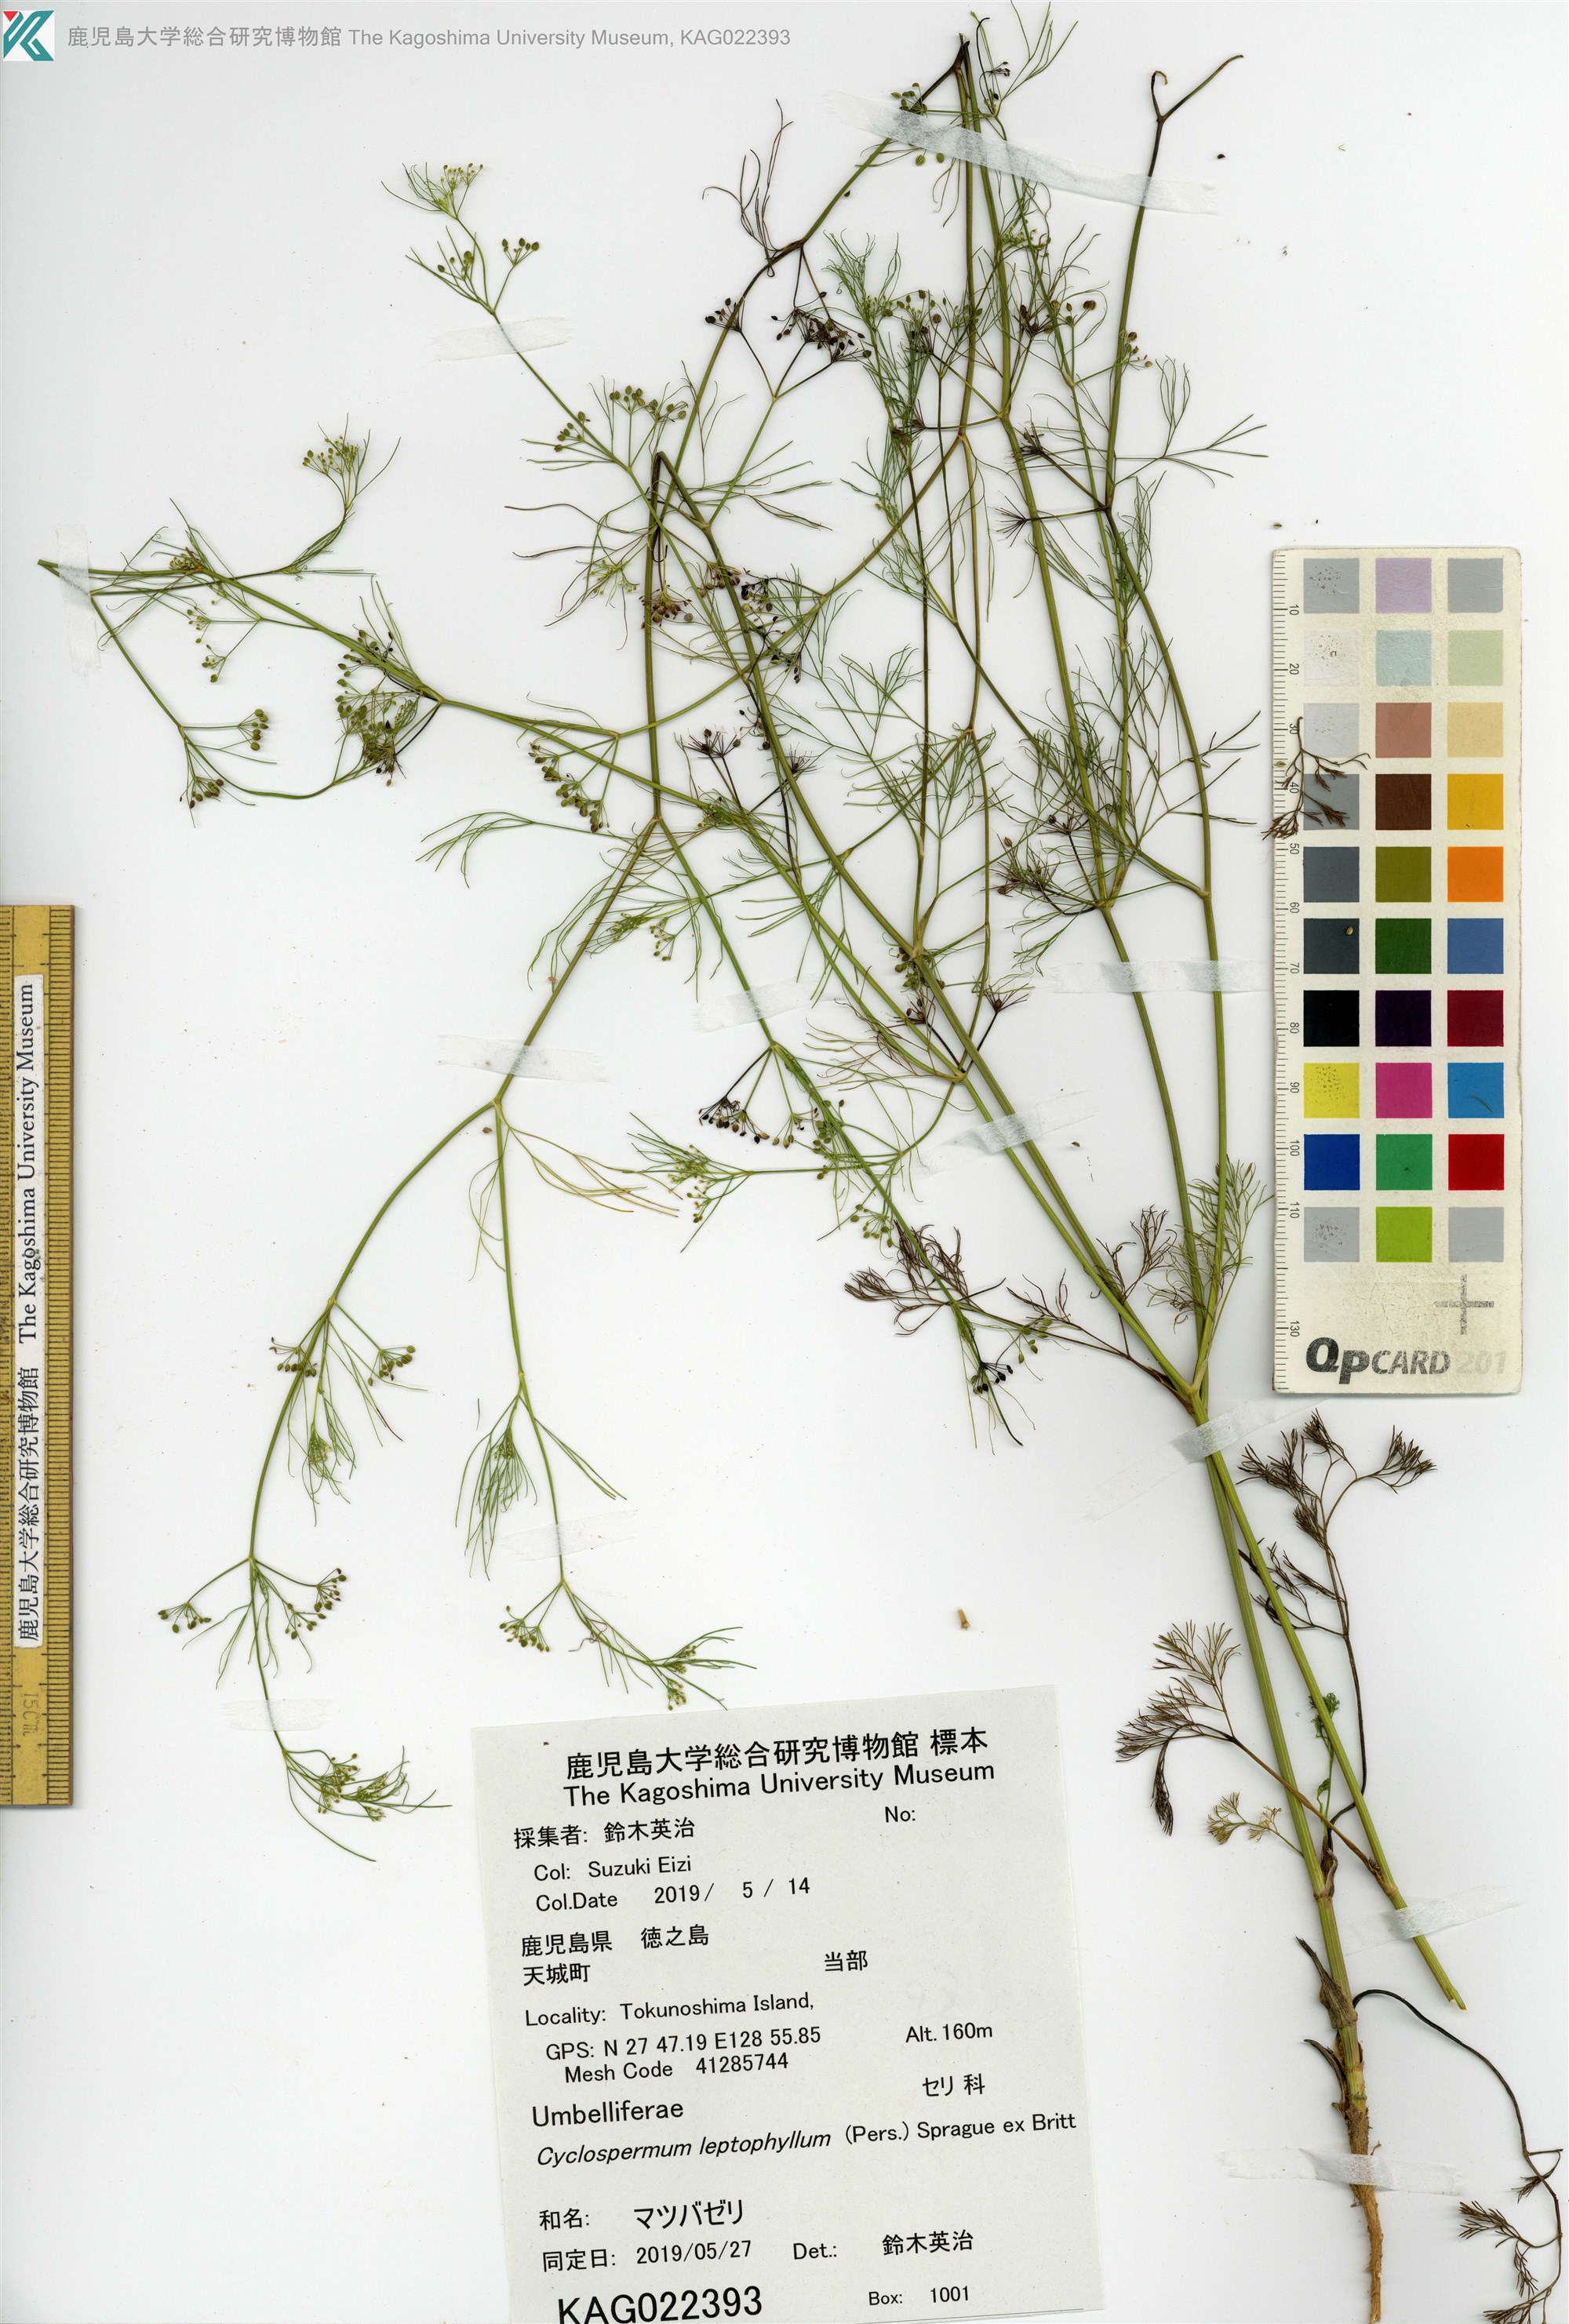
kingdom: Plantae
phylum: Tracheophyta
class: Magnoliopsida
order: Apiales
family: Apiaceae
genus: Cyclospermum
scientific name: Cyclospermum leptophyllum
